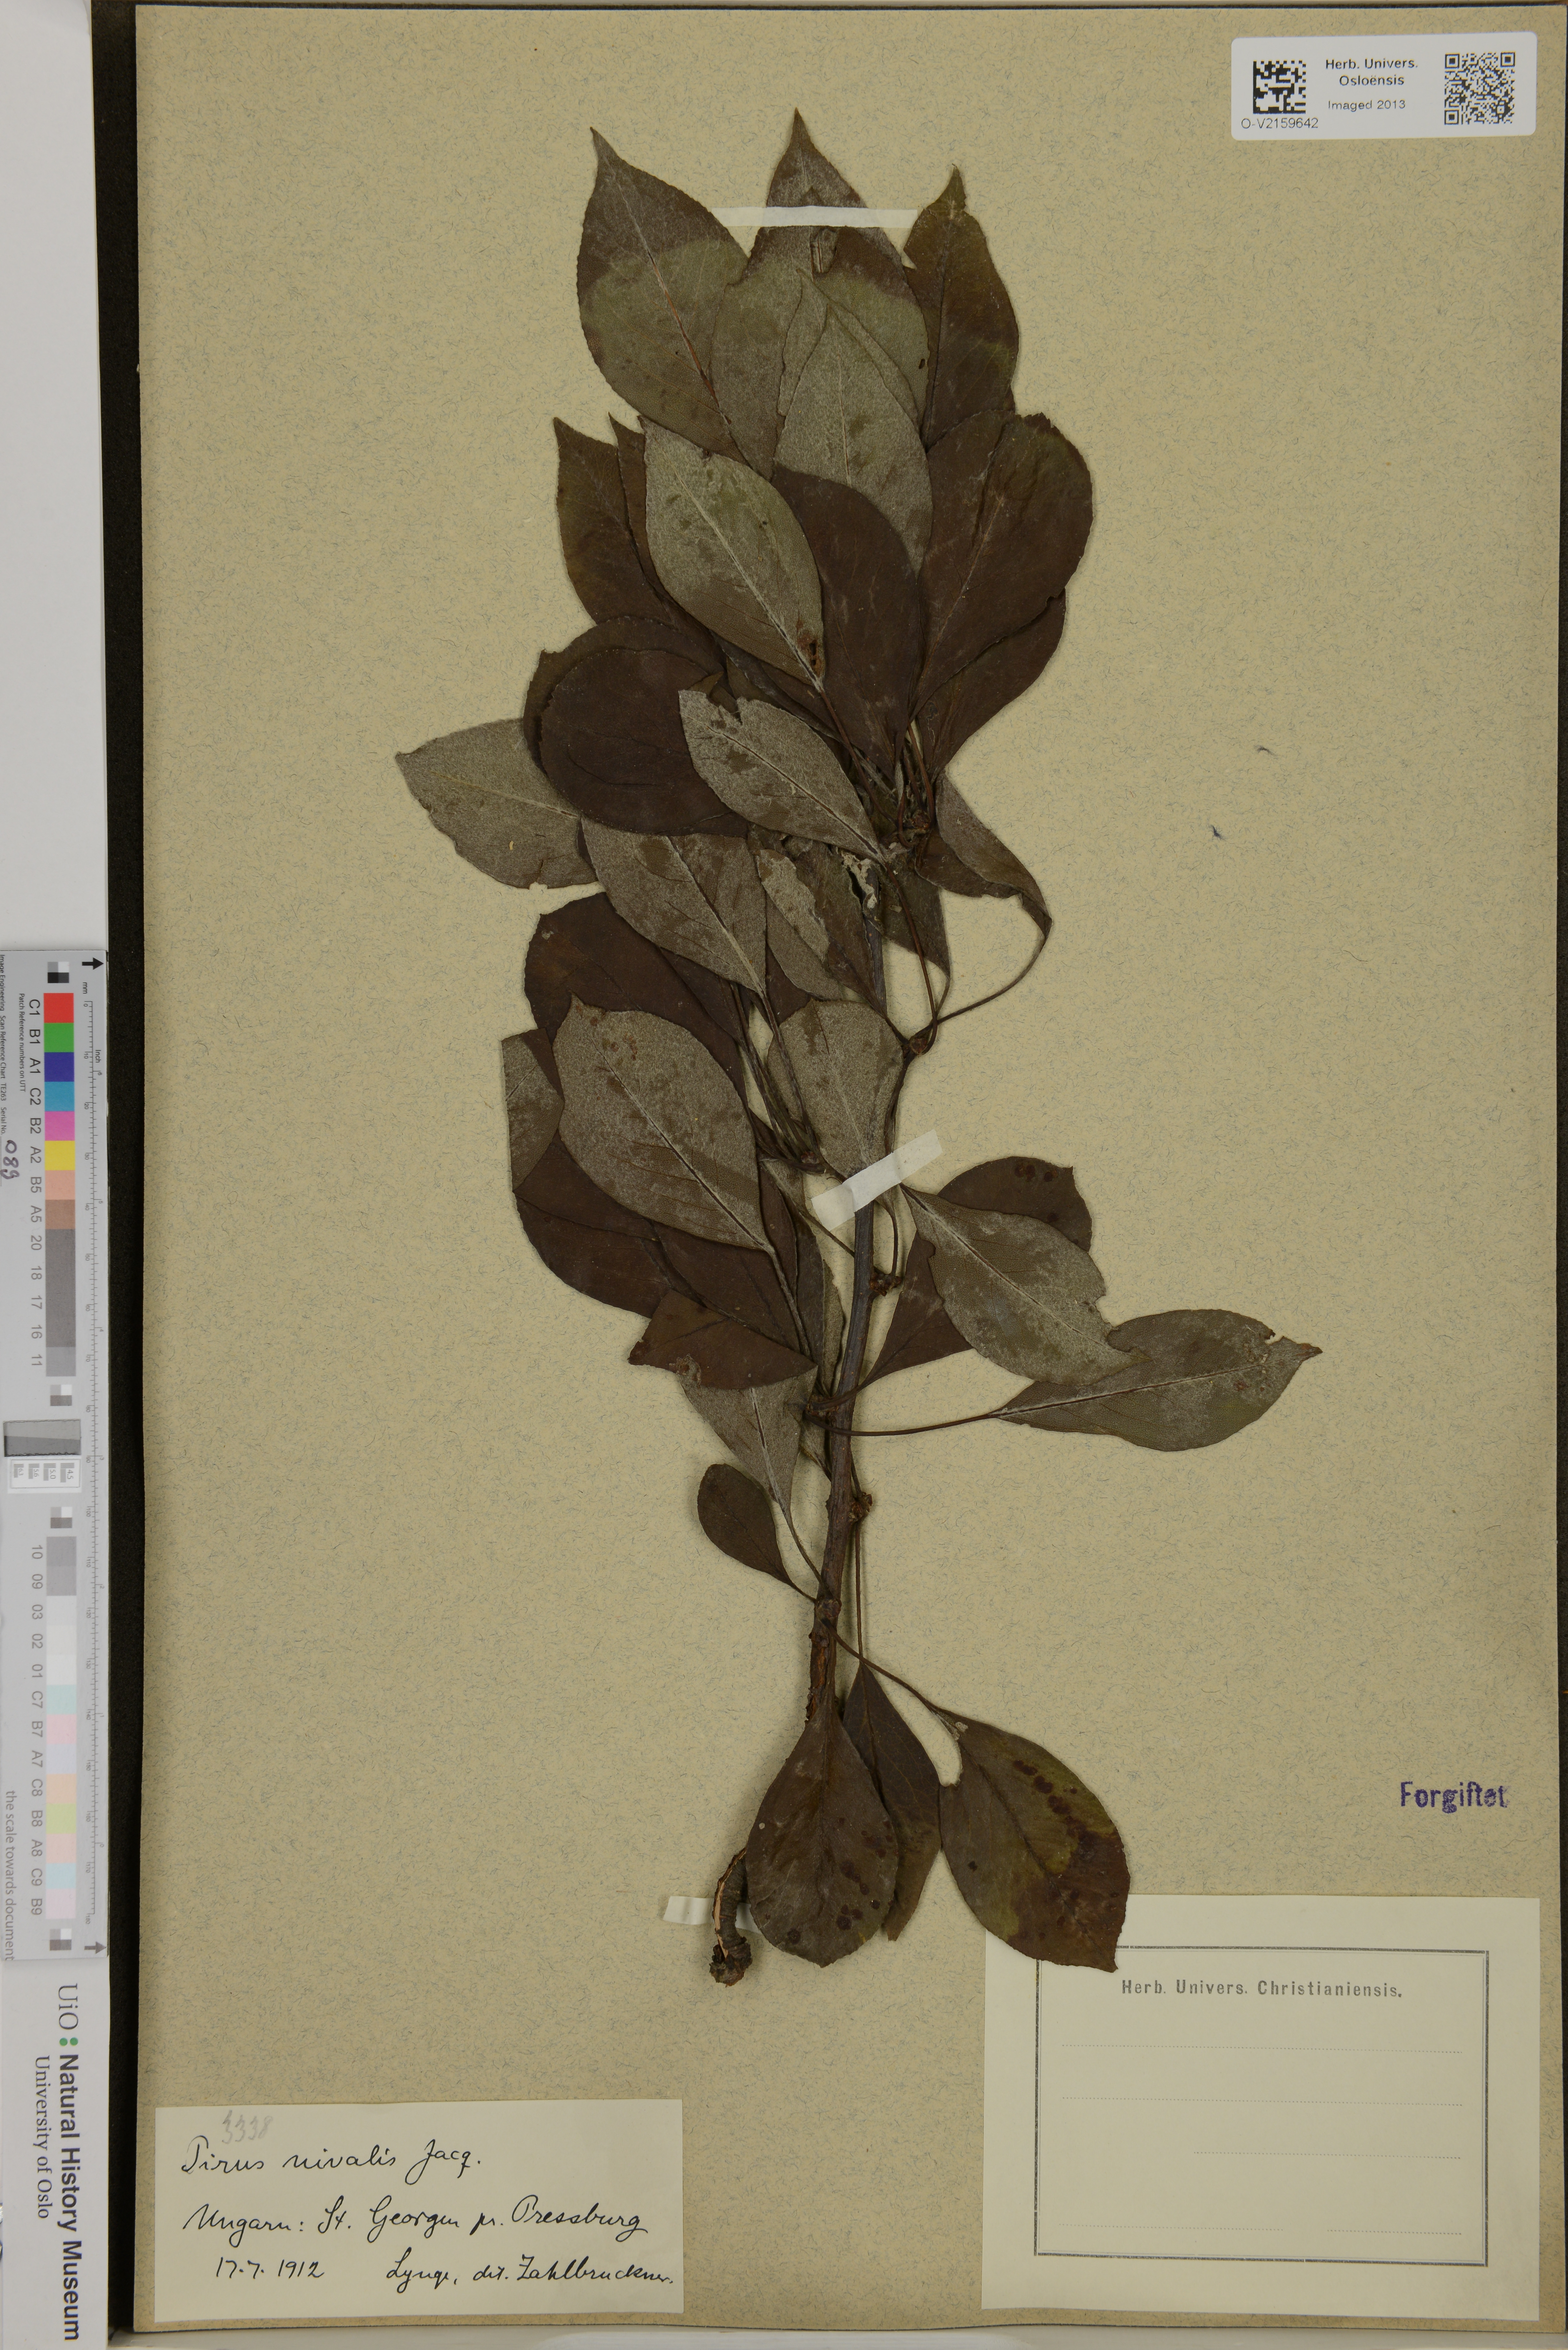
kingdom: Plantae
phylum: Tracheophyta
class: Magnoliopsida
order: Rosales
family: Rosaceae
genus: Pyrus
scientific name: Pyrus nivalis
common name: Snow pear
